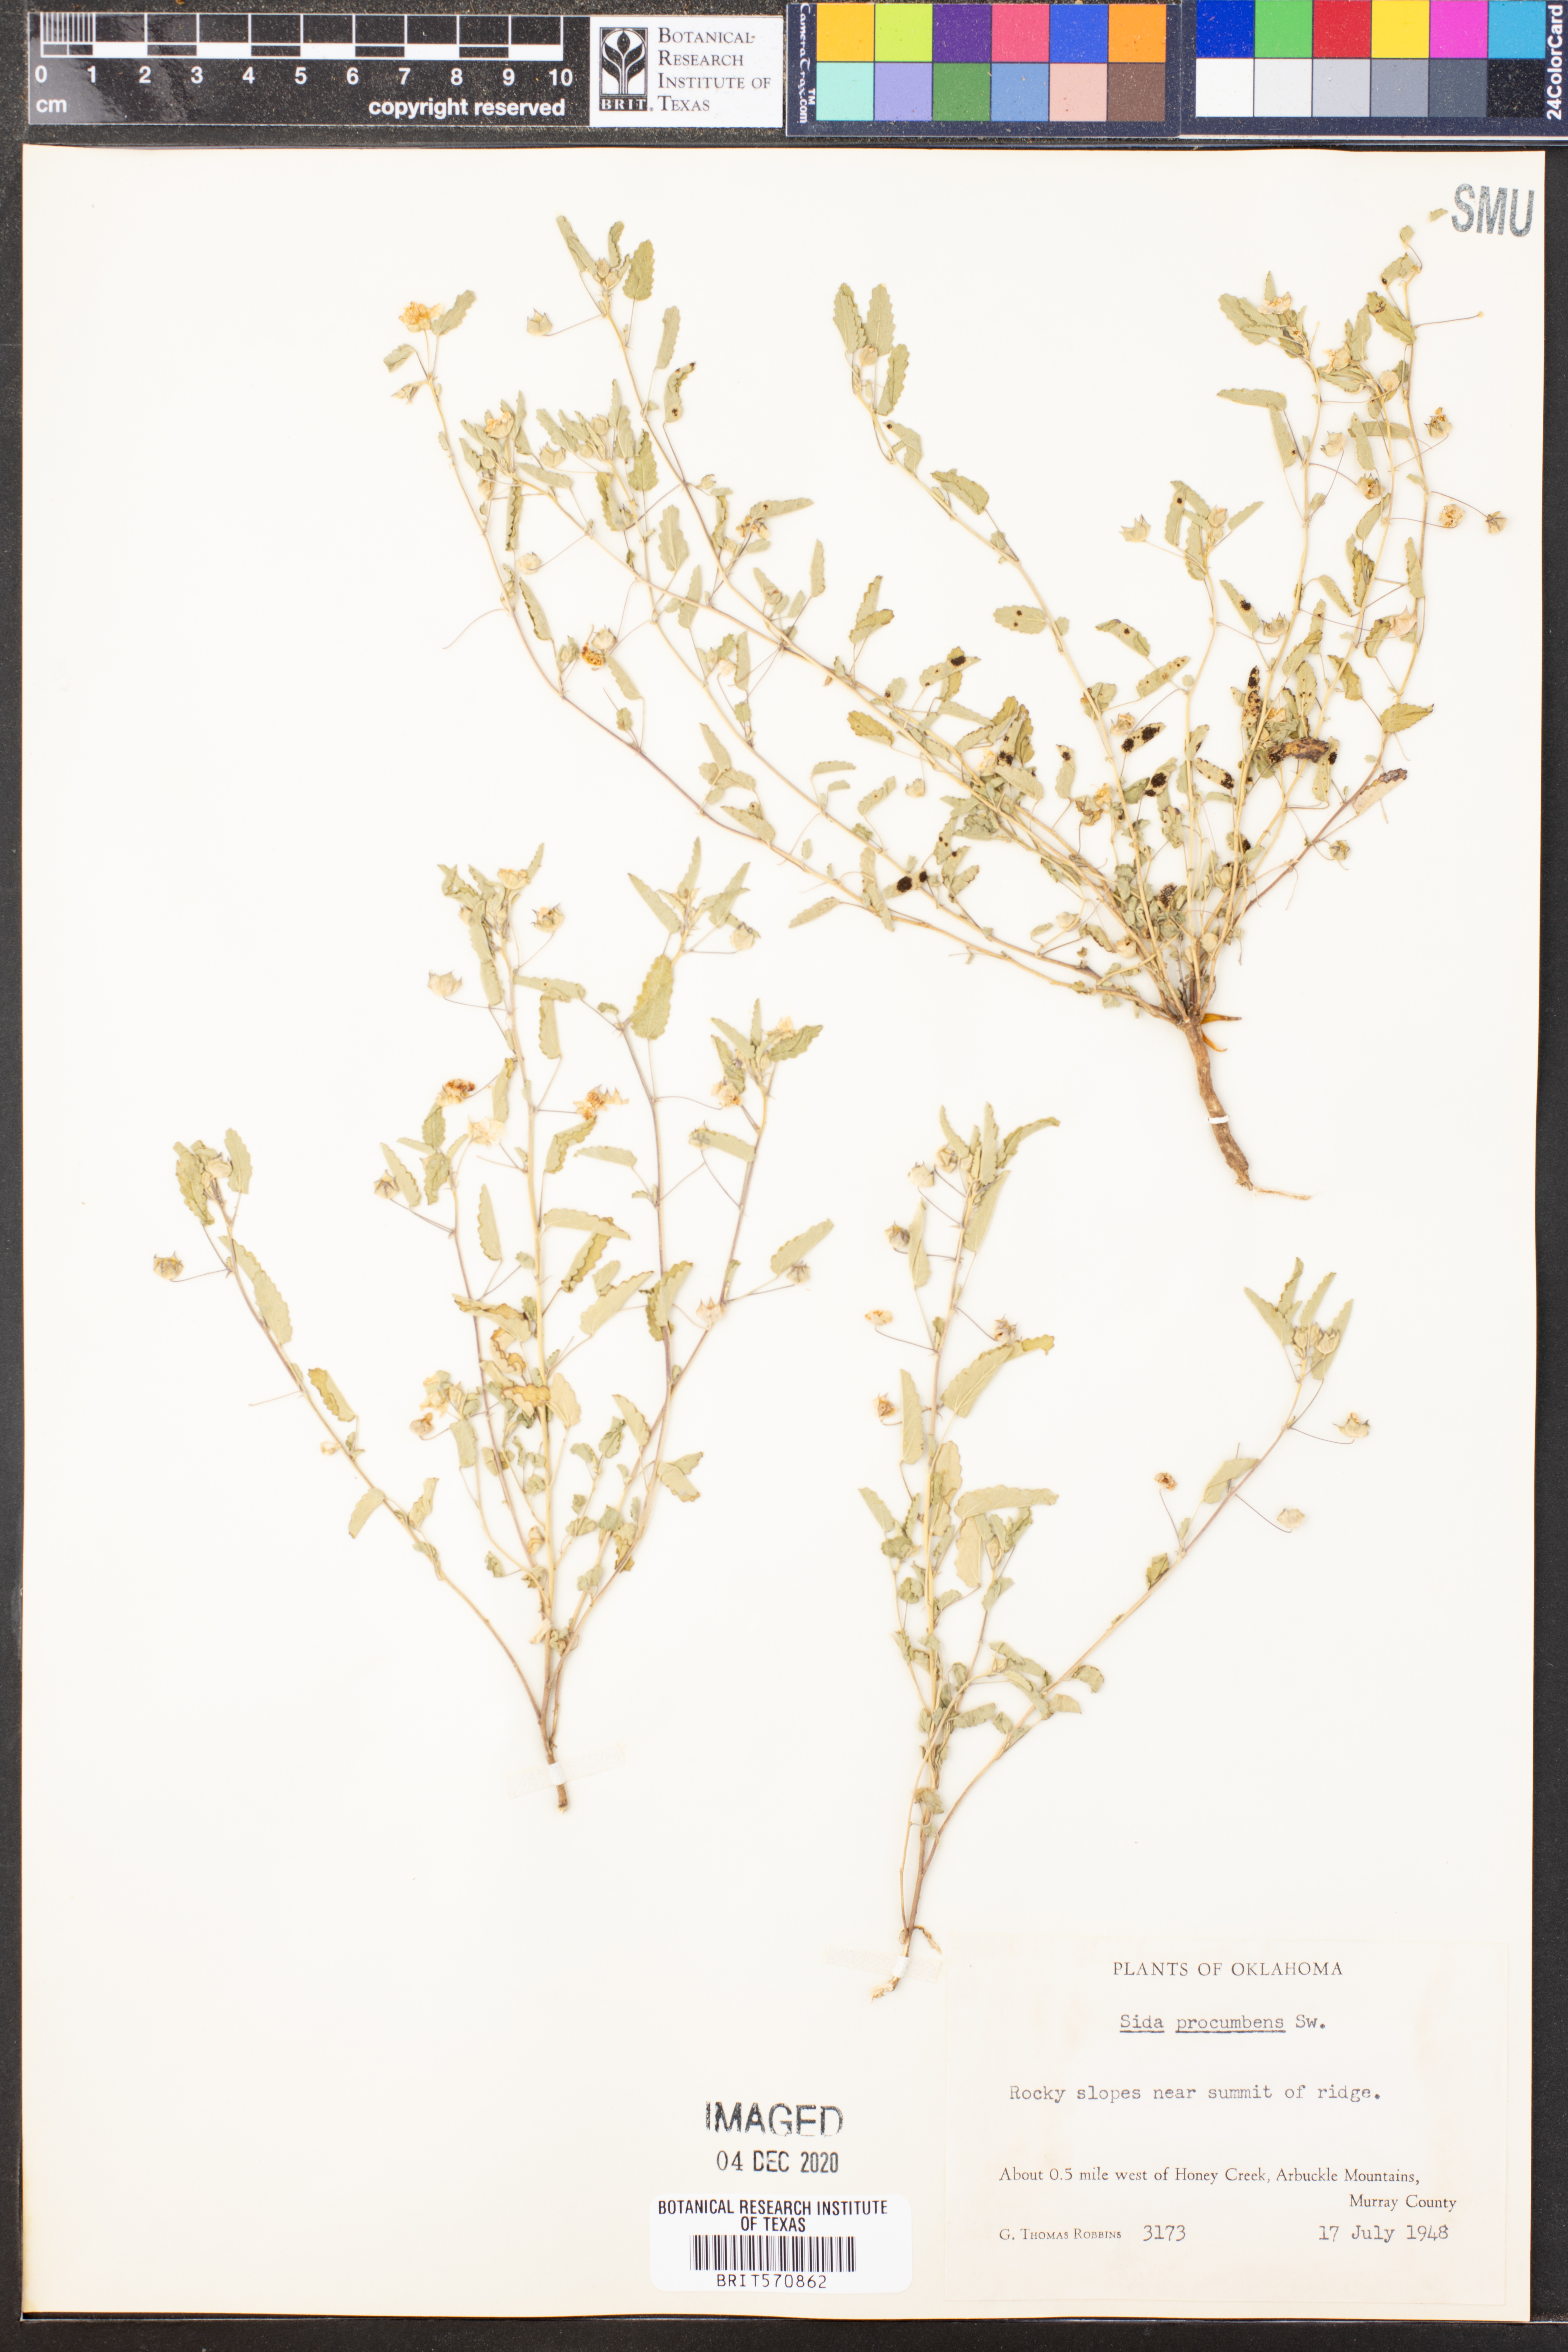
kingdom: Plantae
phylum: Tracheophyta
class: Magnoliopsida
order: Malvales
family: Malvaceae
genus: Sida
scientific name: Sida abutilifolia
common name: Spreading fanpetals
